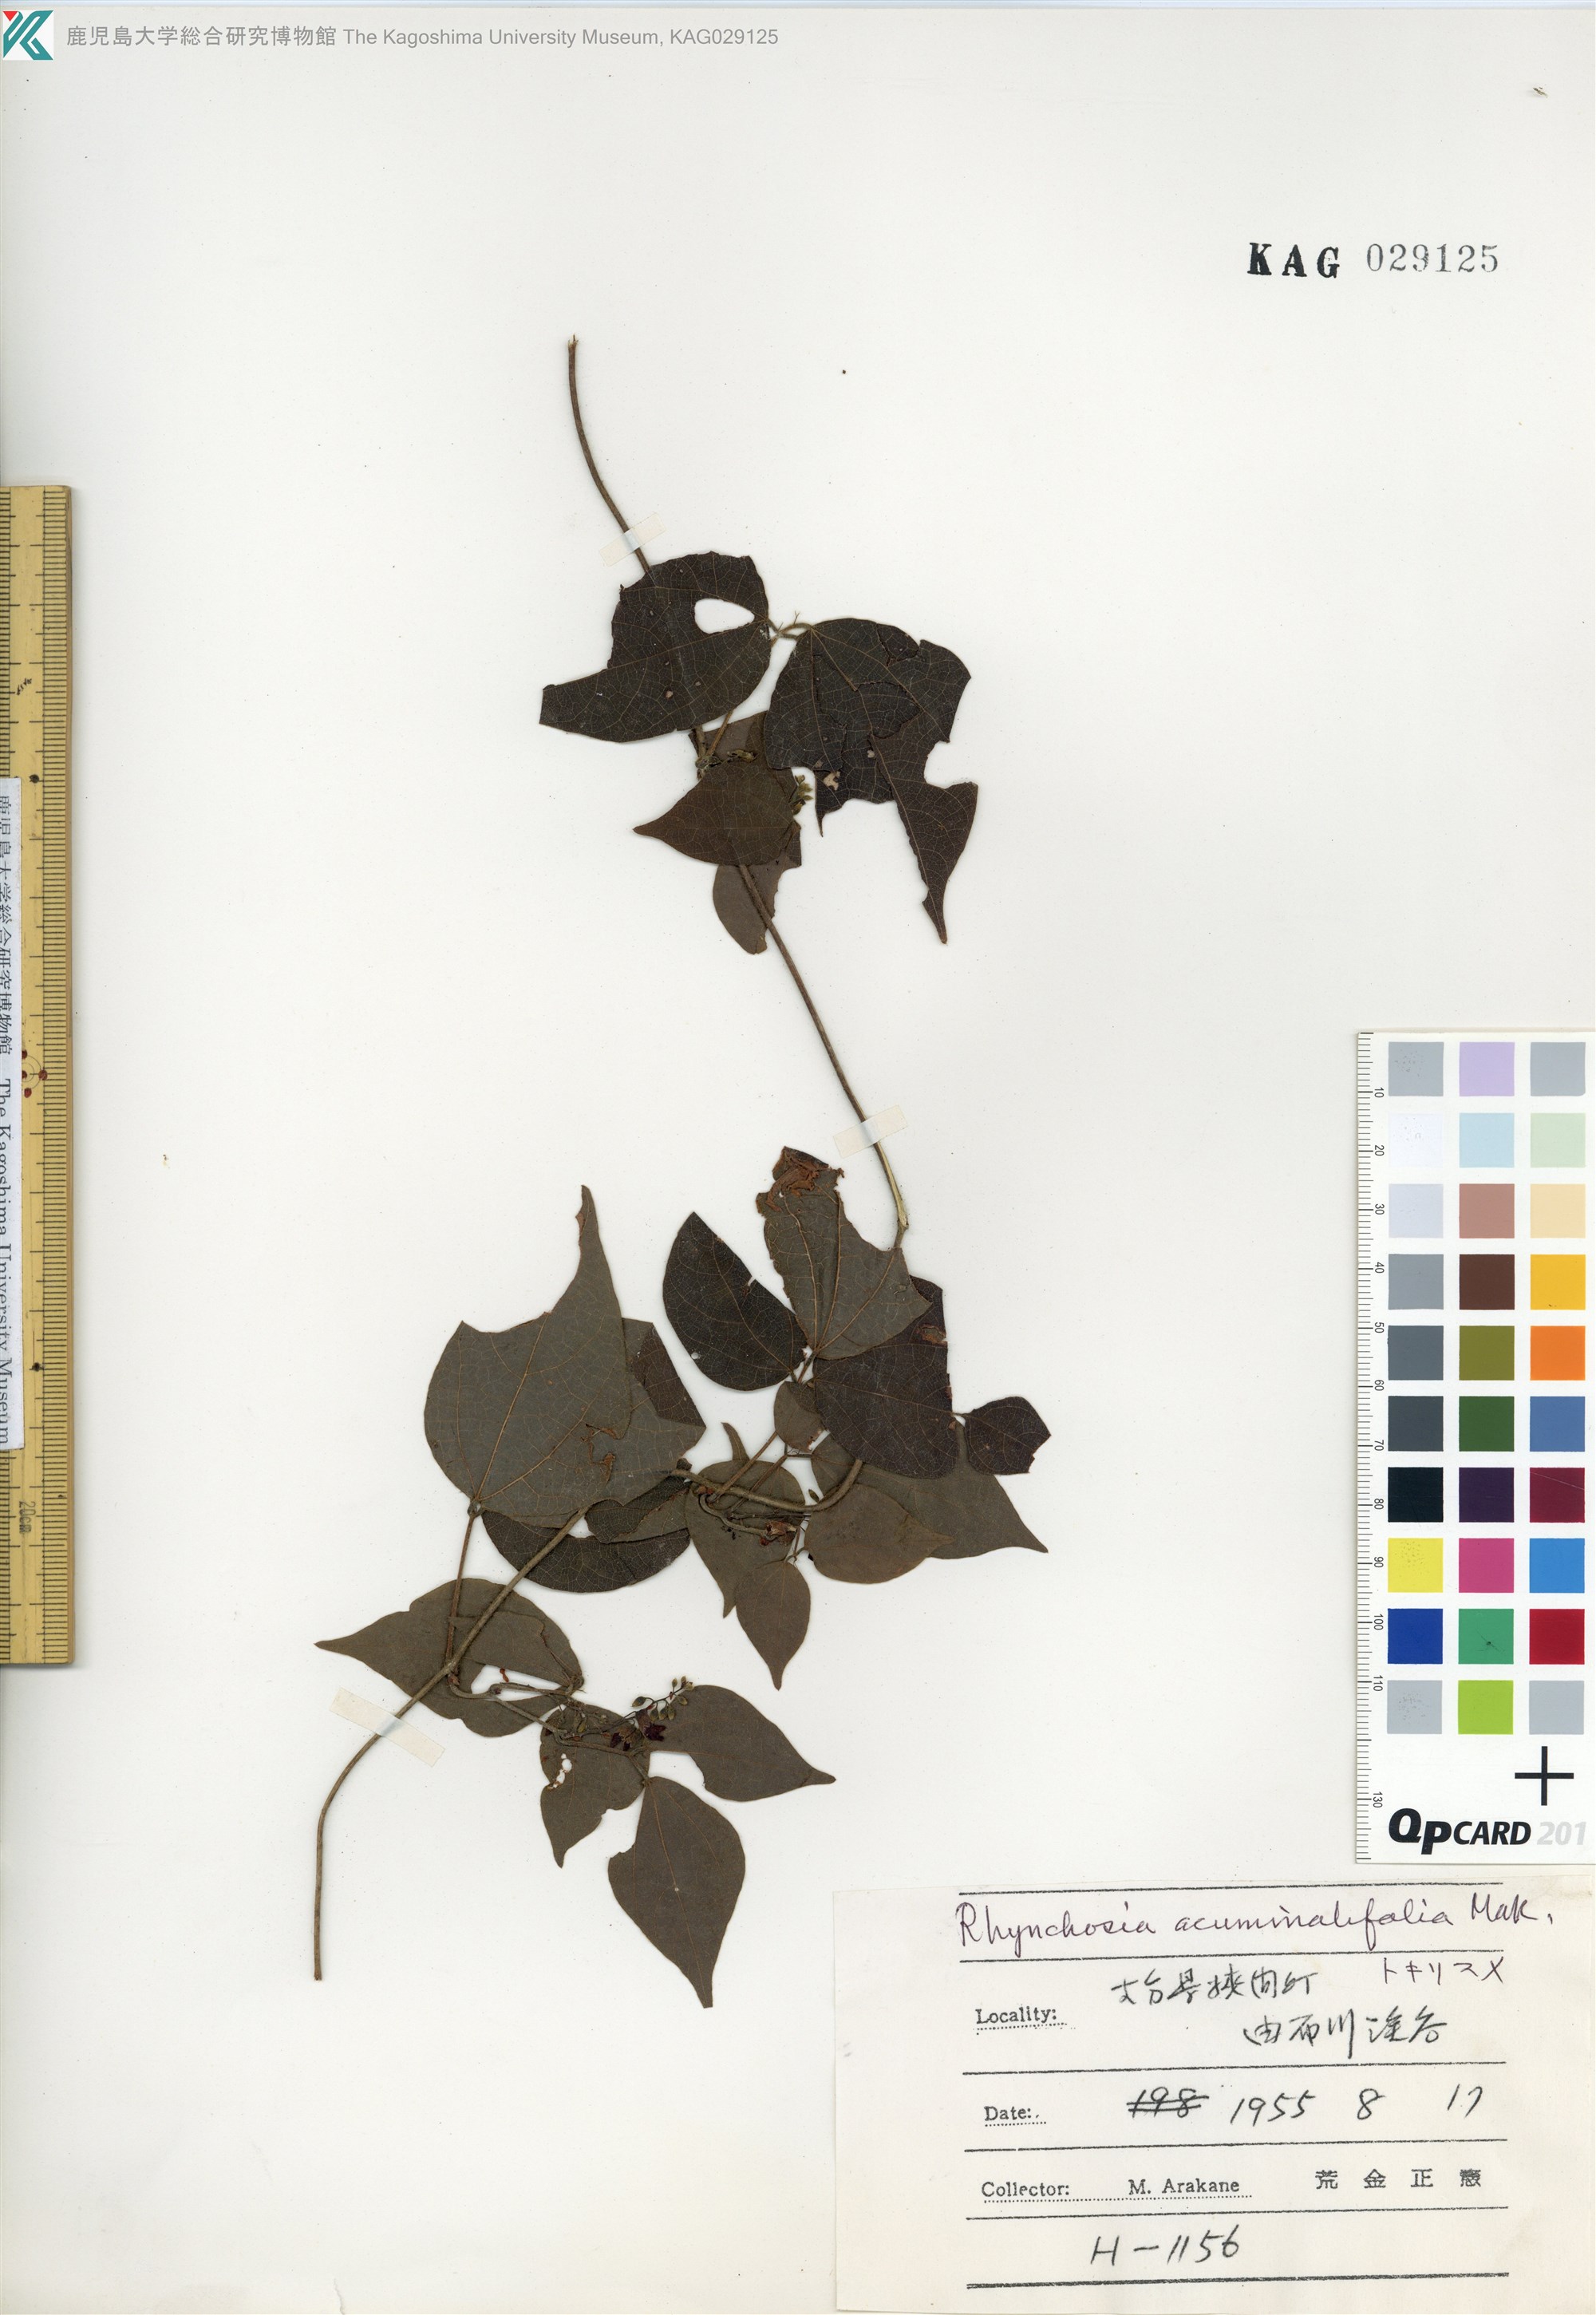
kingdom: Plantae
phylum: Tracheophyta
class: Magnoliopsida
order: Fabales
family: Fabaceae
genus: Rhynchosia
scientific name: Rhynchosia acuminatifolia
